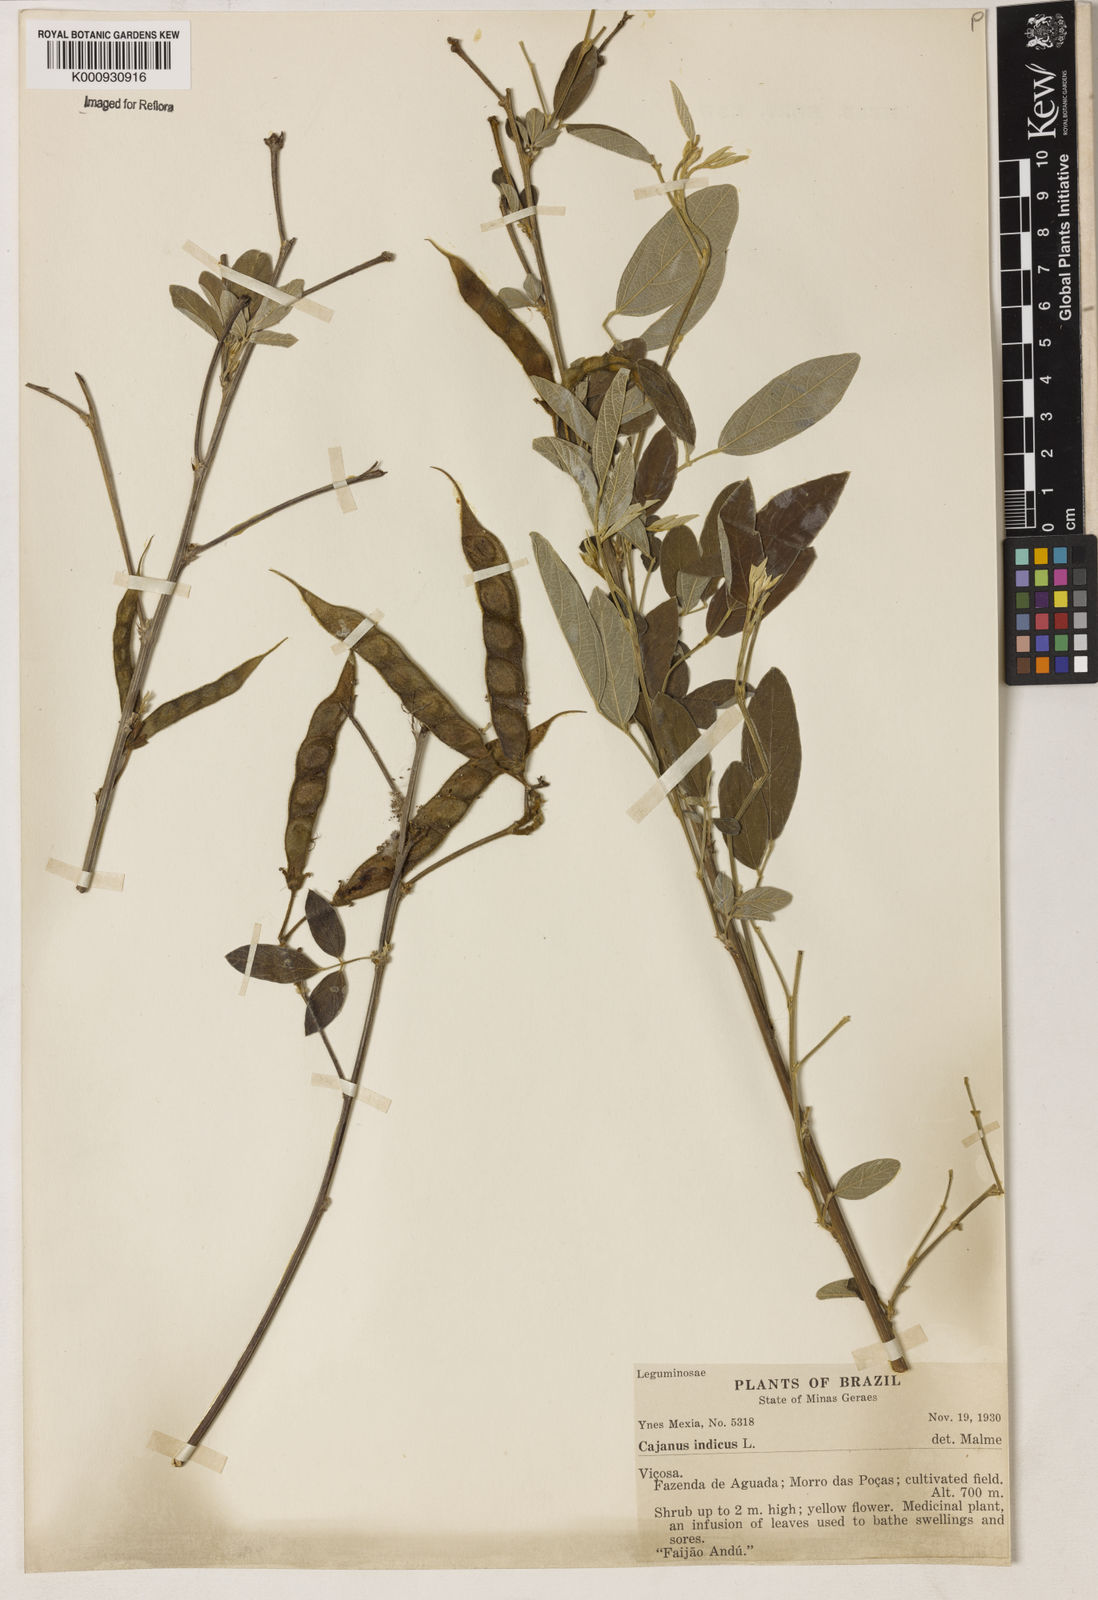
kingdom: Plantae
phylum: Tracheophyta
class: Magnoliopsida
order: Fabales
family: Fabaceae
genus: Cajanus
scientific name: Cajanus
